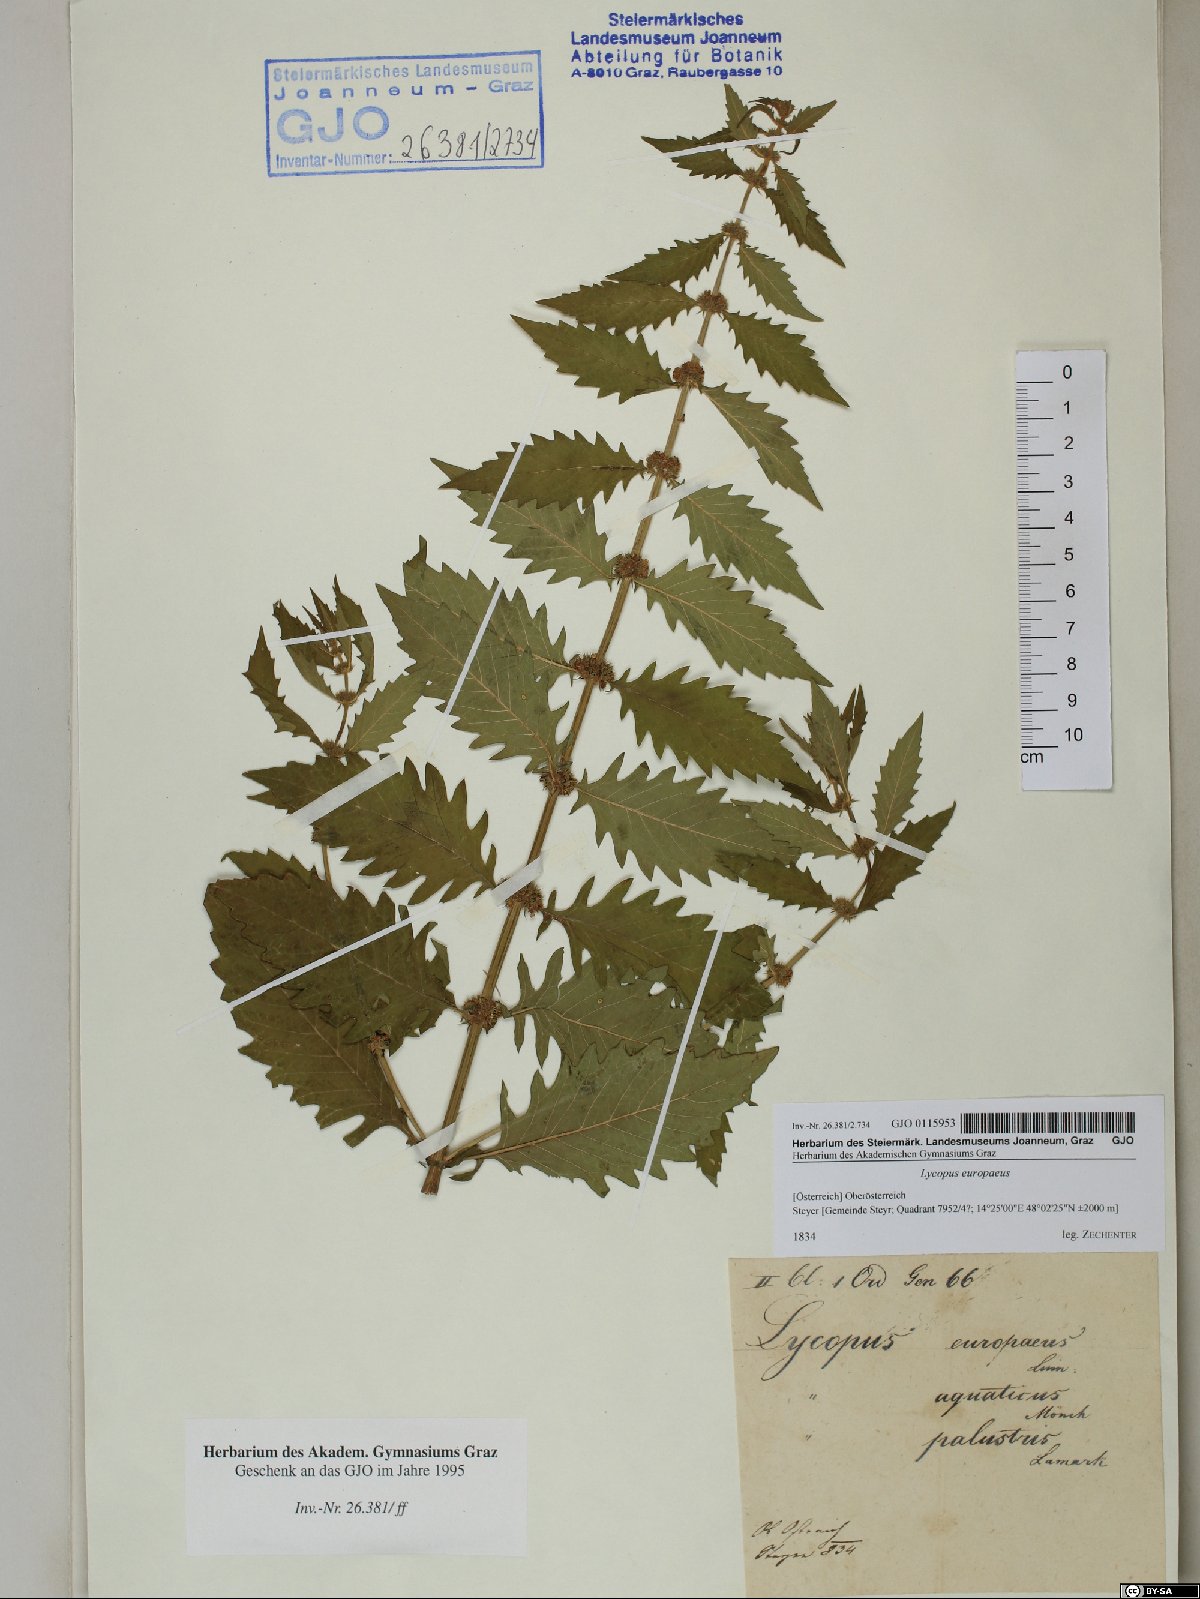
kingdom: Plantae
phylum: Tracheophyta
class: Magnoliopsida
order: Lamiales
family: Lamiaceae
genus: Lycopus
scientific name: Lycopus europaeus
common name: European bugleweed
